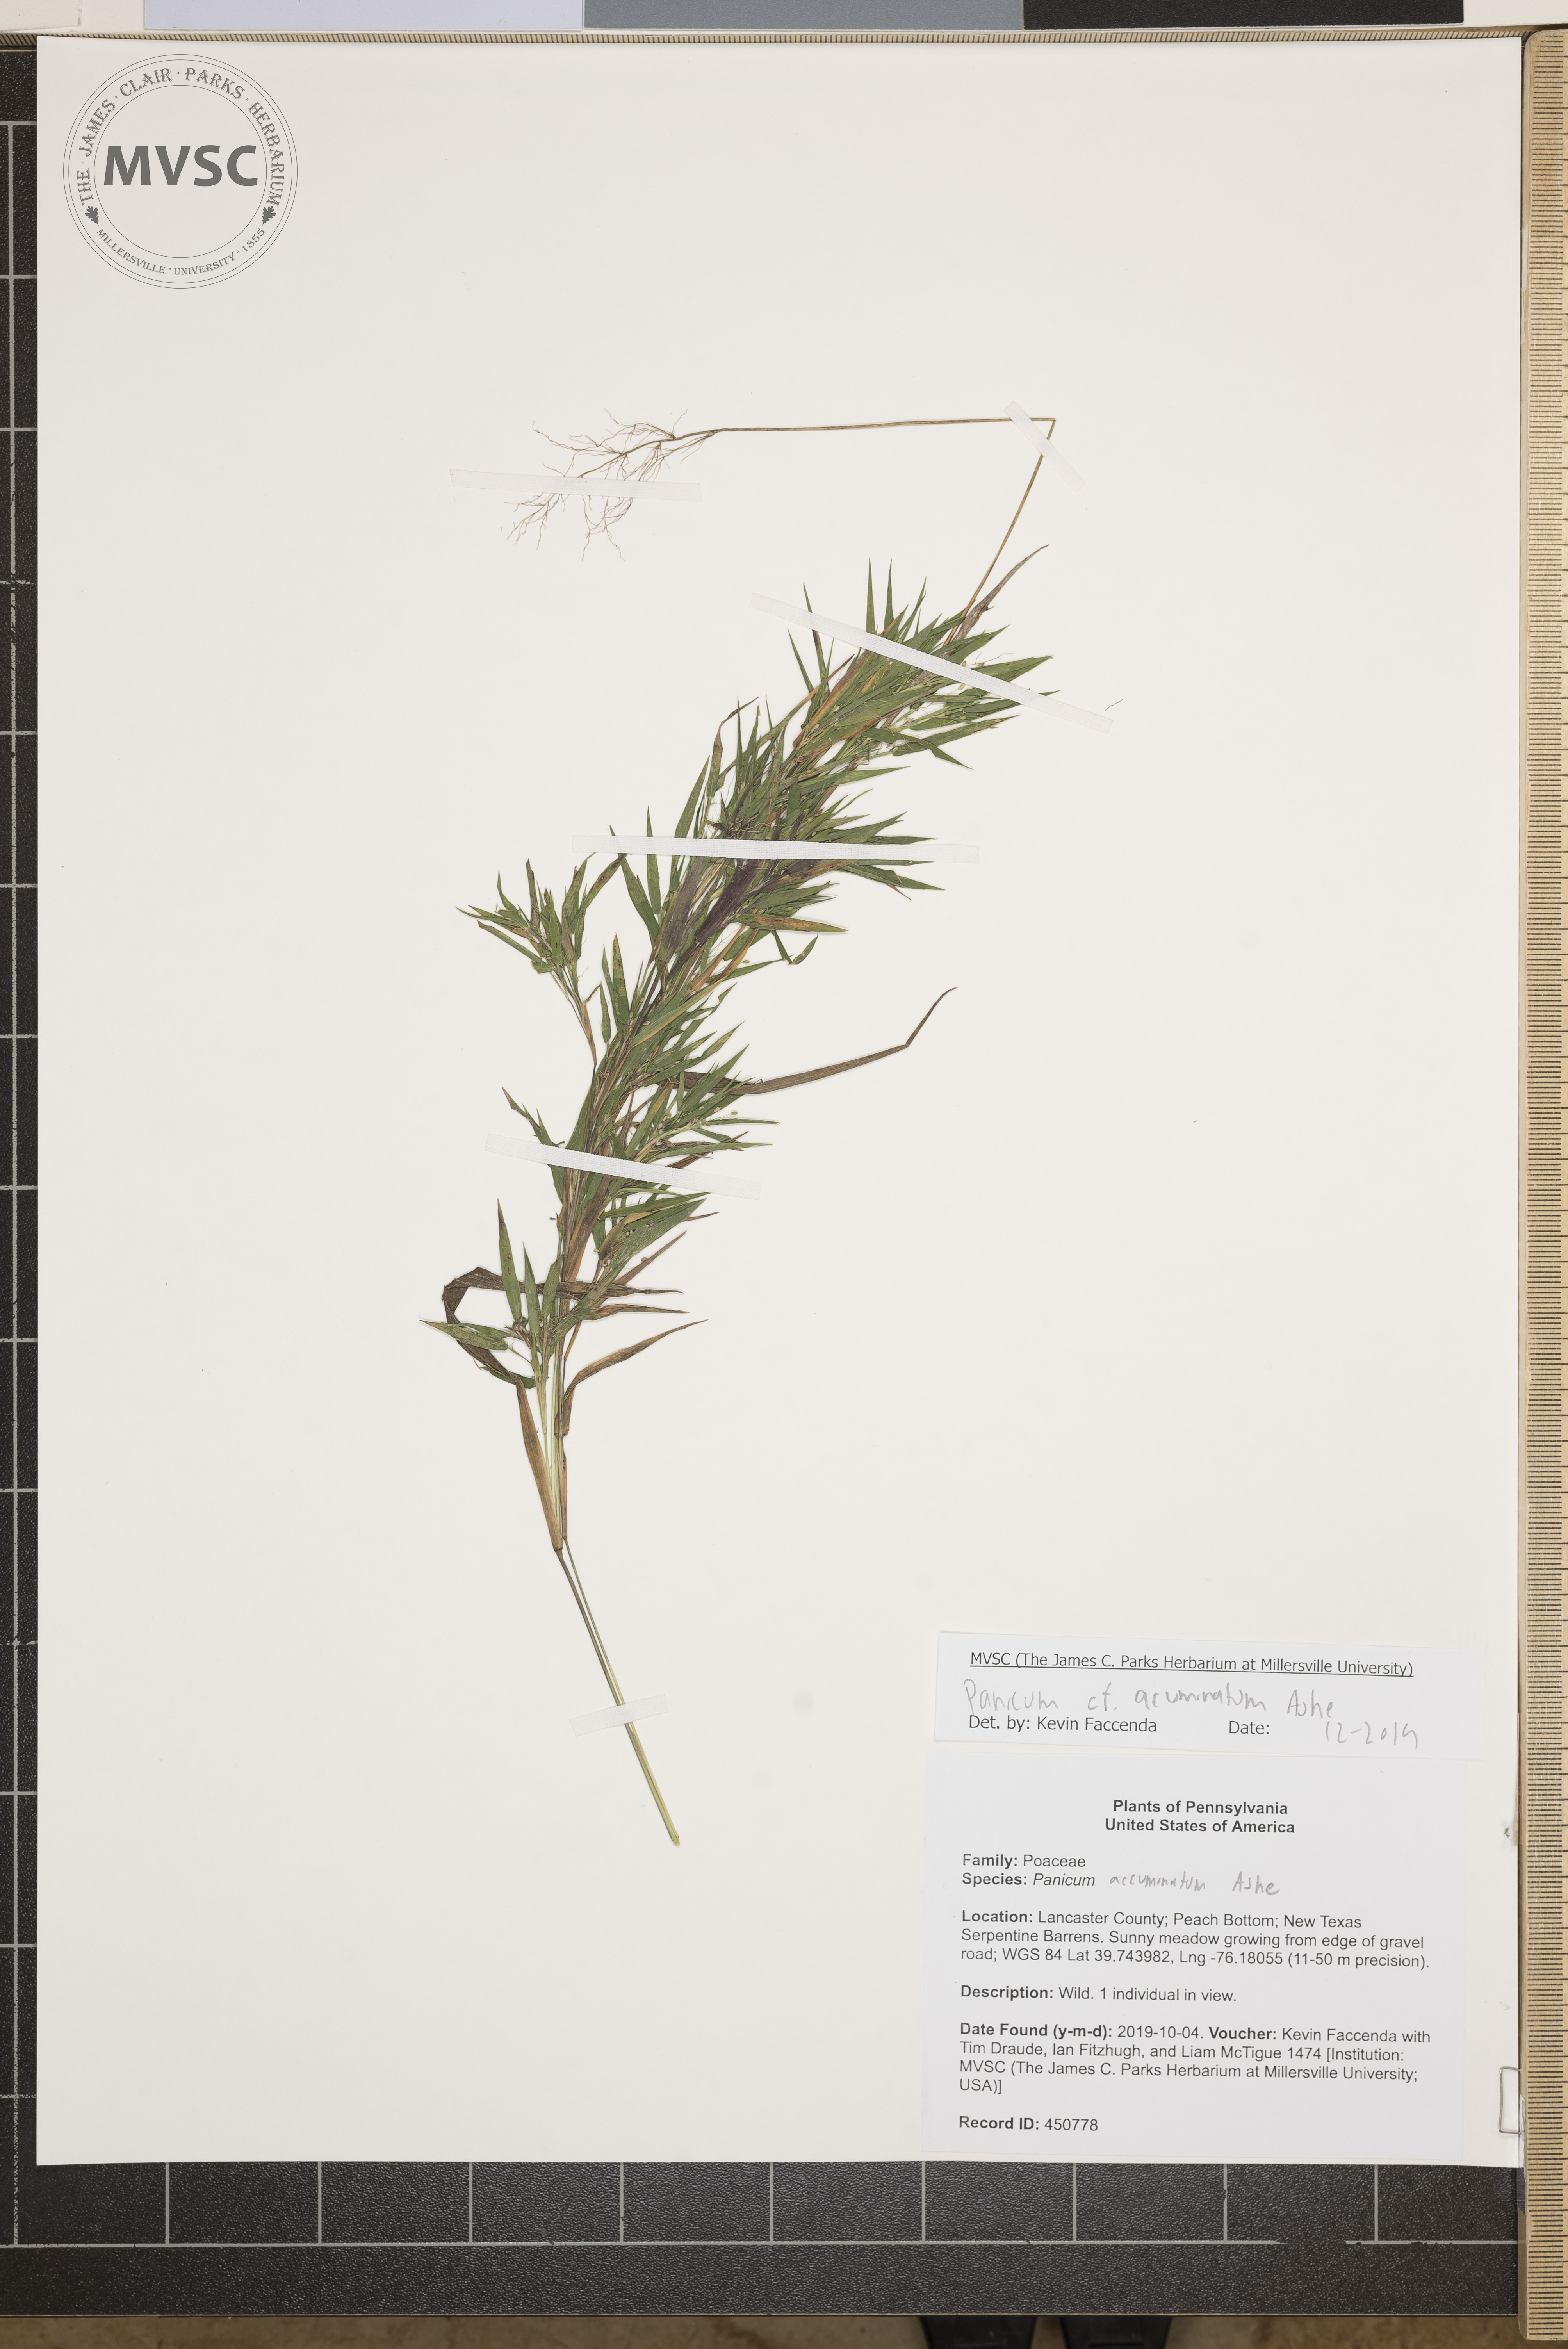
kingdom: Plantae
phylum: Tracheophyta
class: Liliopsida
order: Poales
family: Poaceae
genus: Panicum
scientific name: Panicum acuminatum
